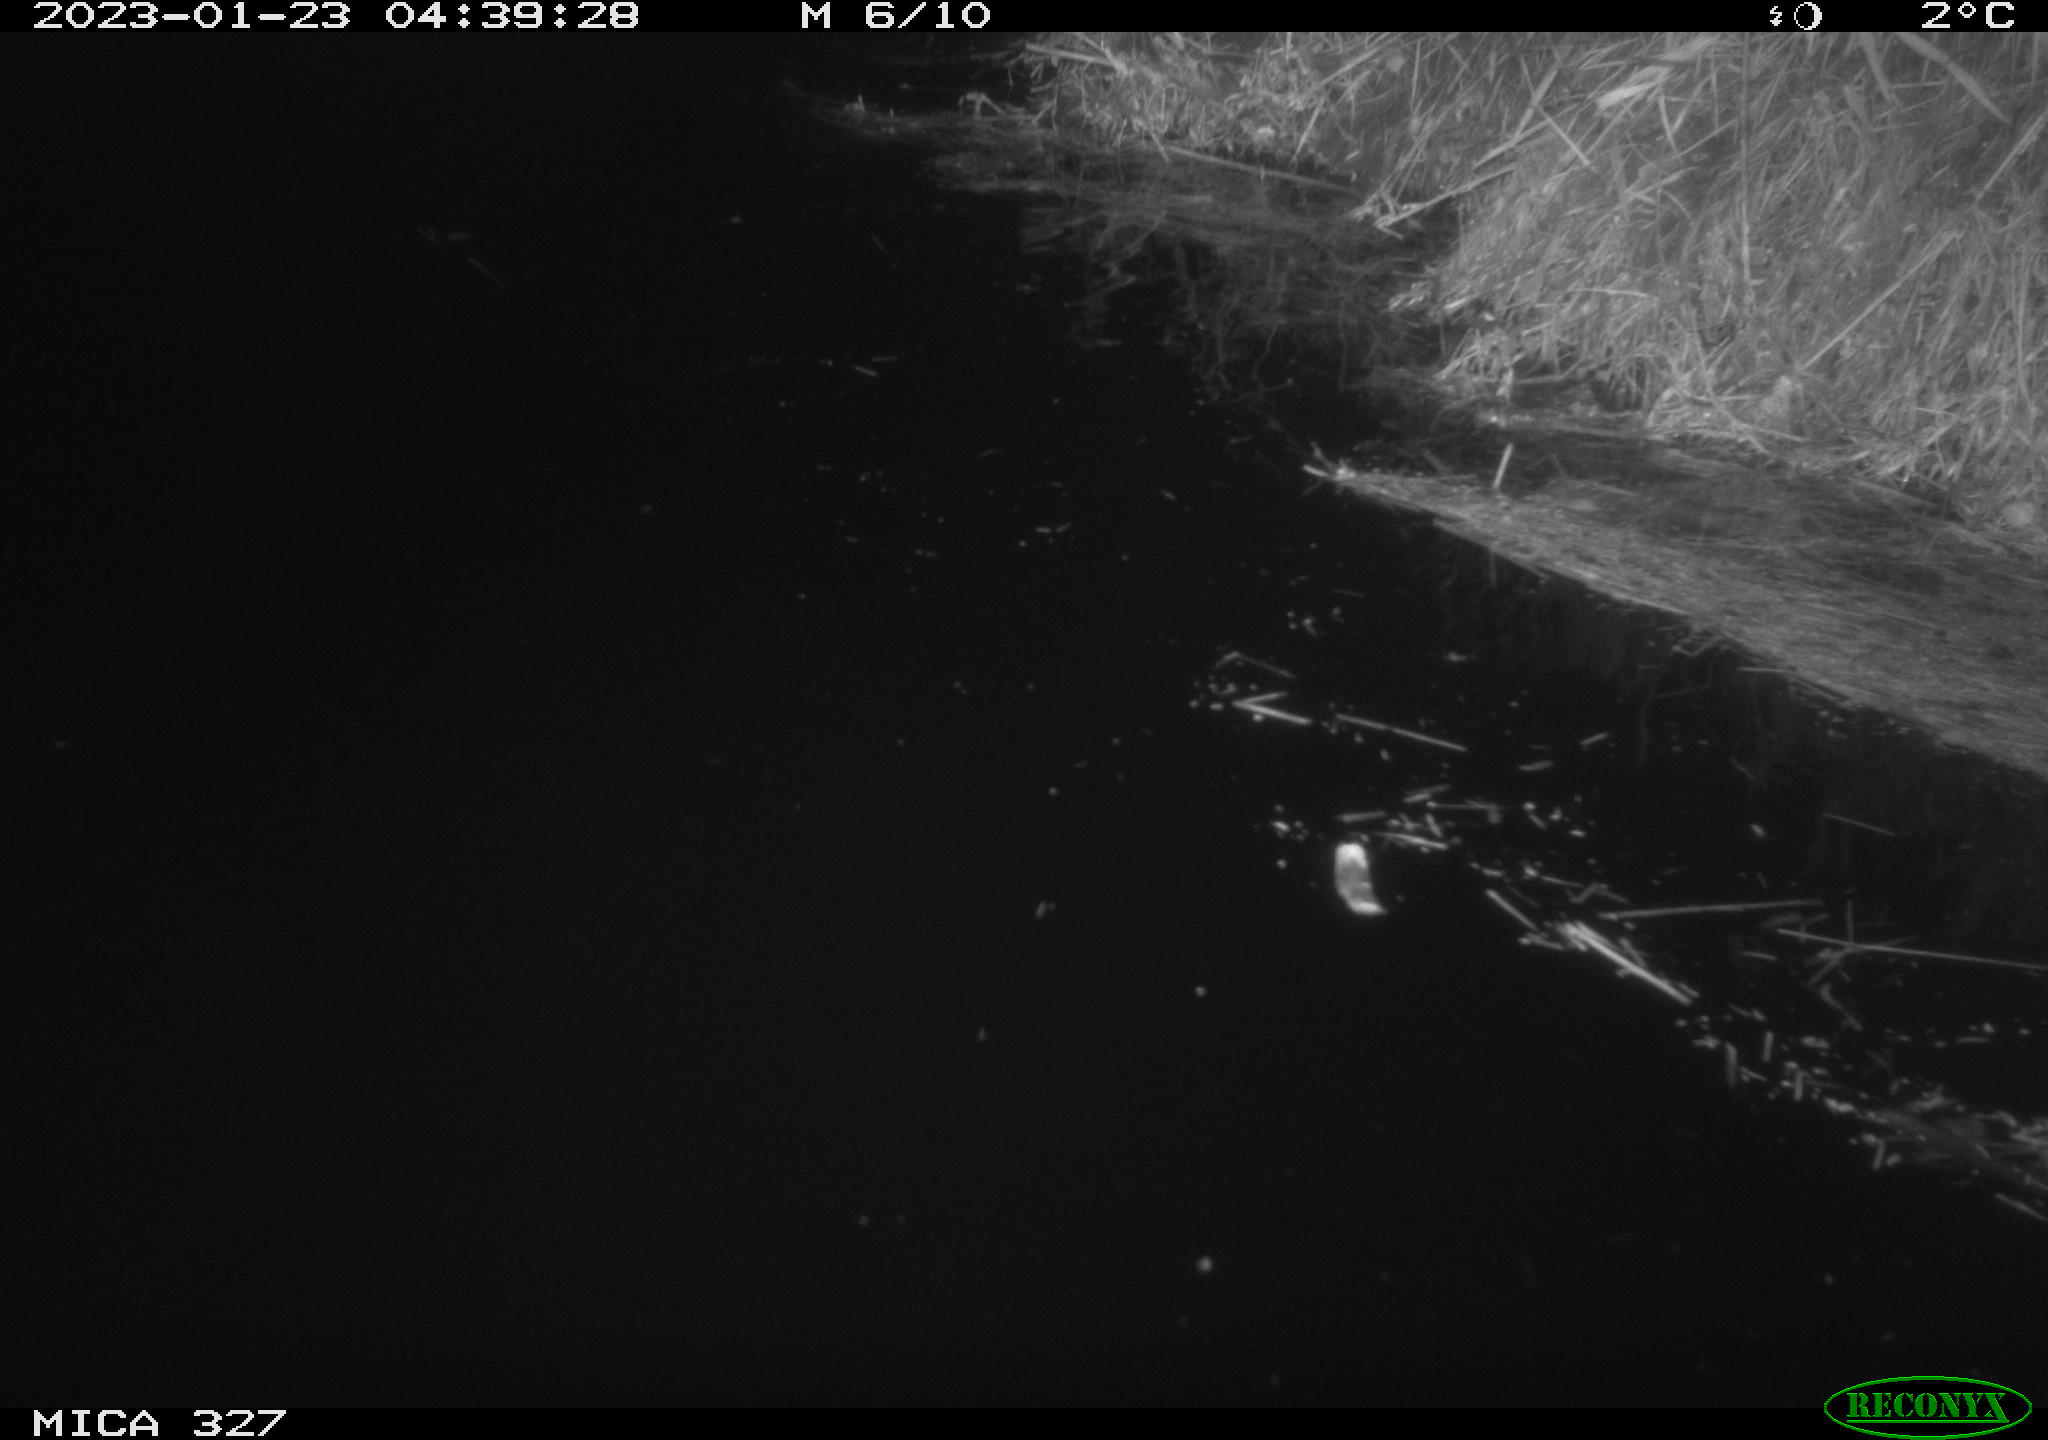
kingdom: Animalia
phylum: Chordata
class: Mammalia
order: Rodentia
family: Cricetidae
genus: Ondatra
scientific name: Ondatra zibethicus
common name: Muskrat
